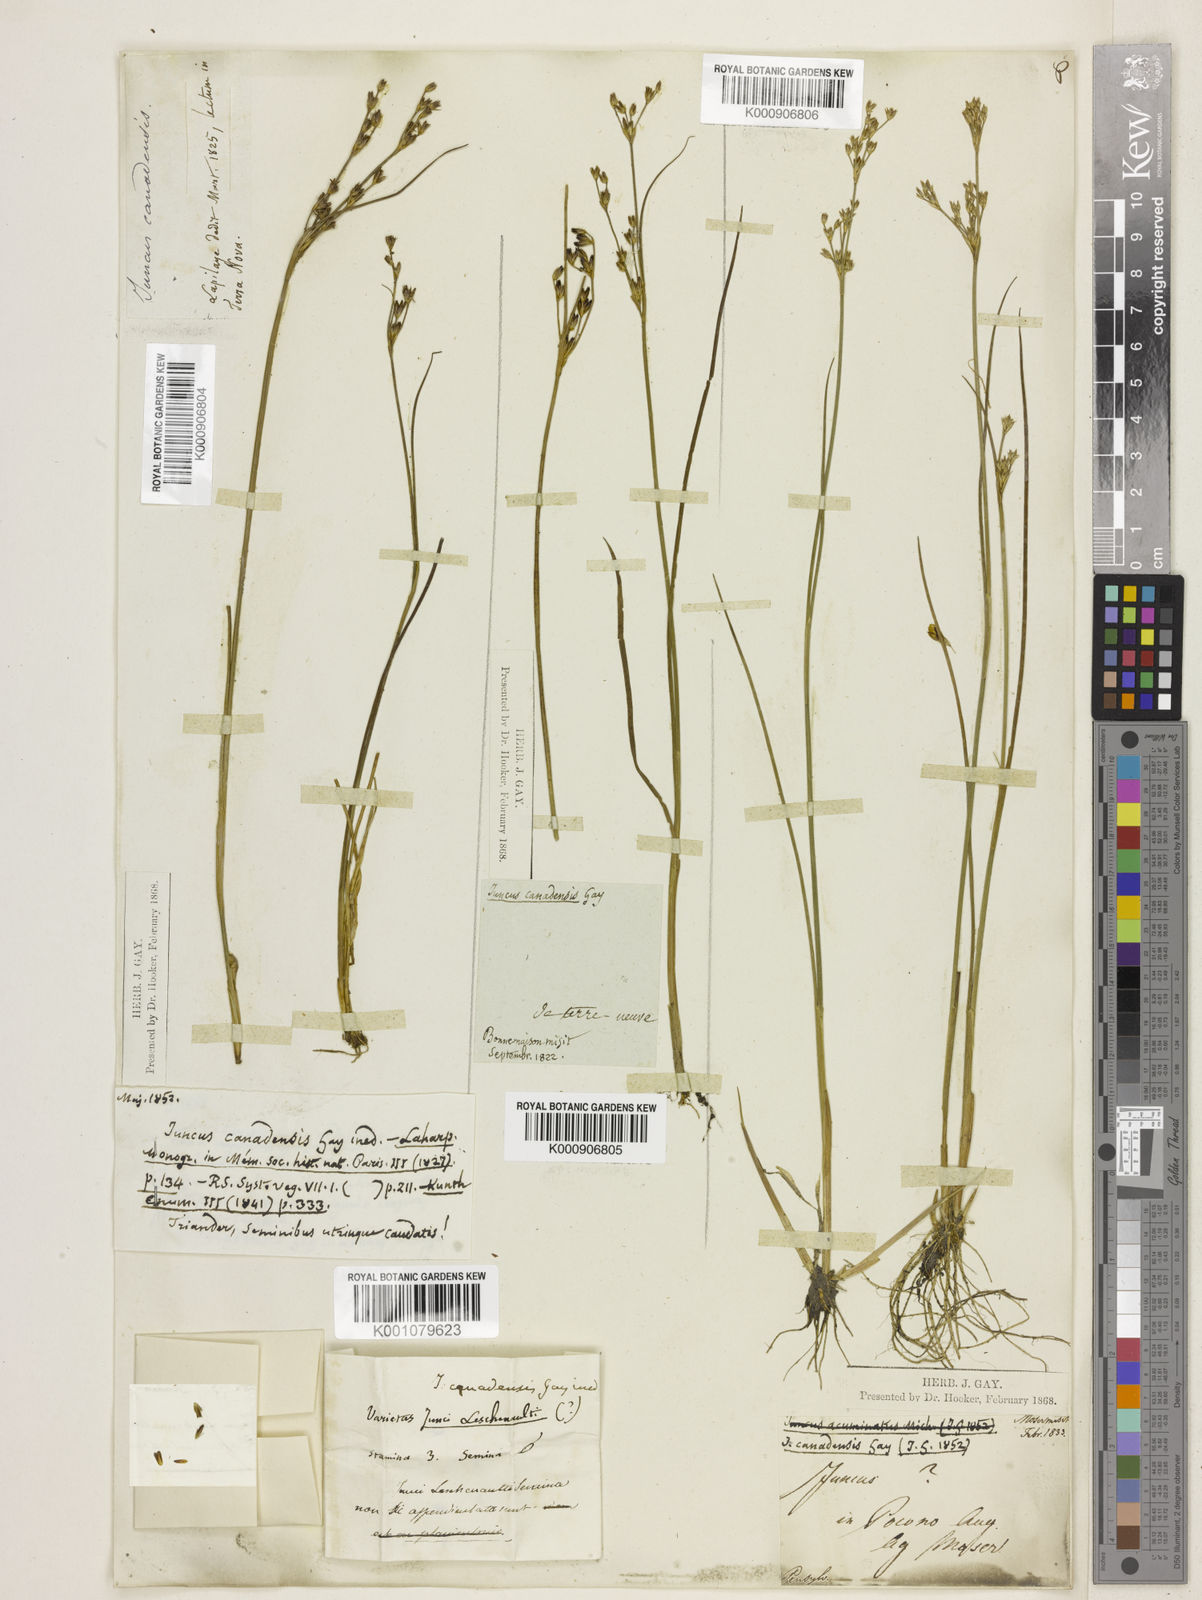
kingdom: Plantae
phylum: Tracheophyta
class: Liliopsida
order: Poales
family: Juncaceae
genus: Juncus
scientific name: Juncus
